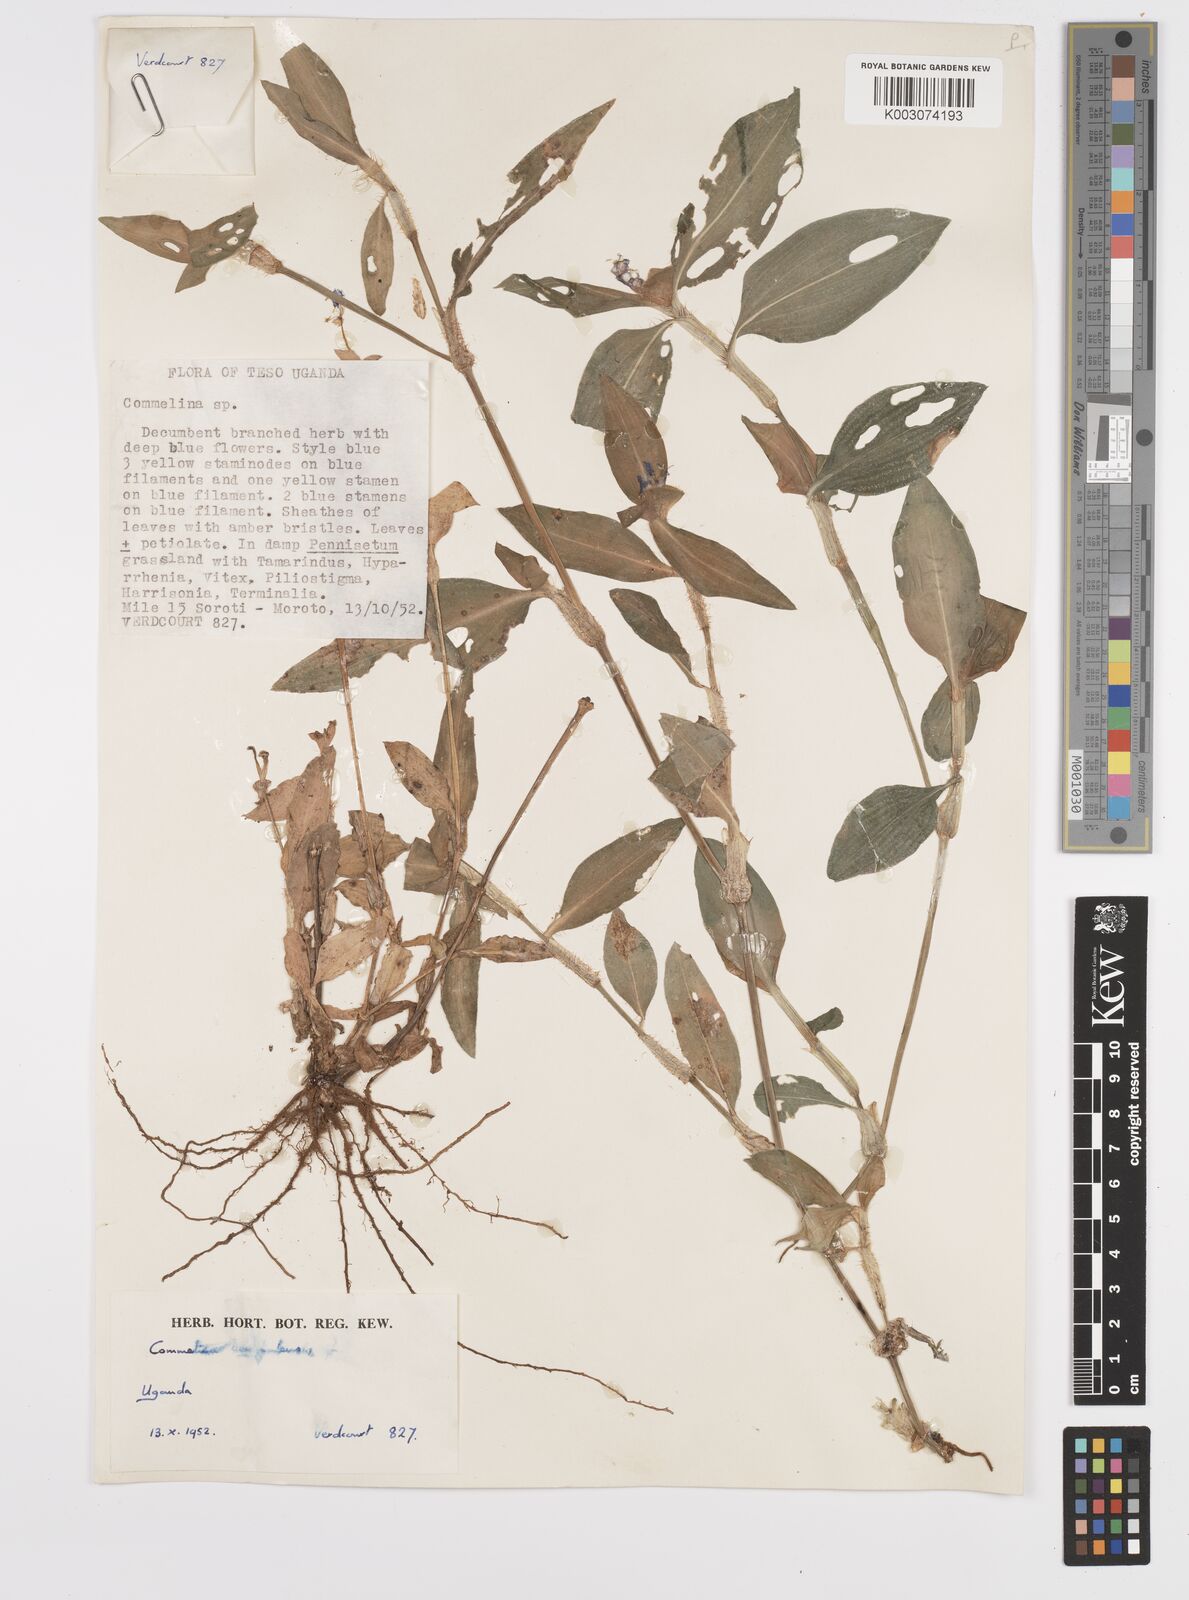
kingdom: Plantae
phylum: Tracheophyta
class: Liliopsida
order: Commelinales
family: Commelinaceae
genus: Commelina
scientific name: Commelina benghalensis
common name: Jio
